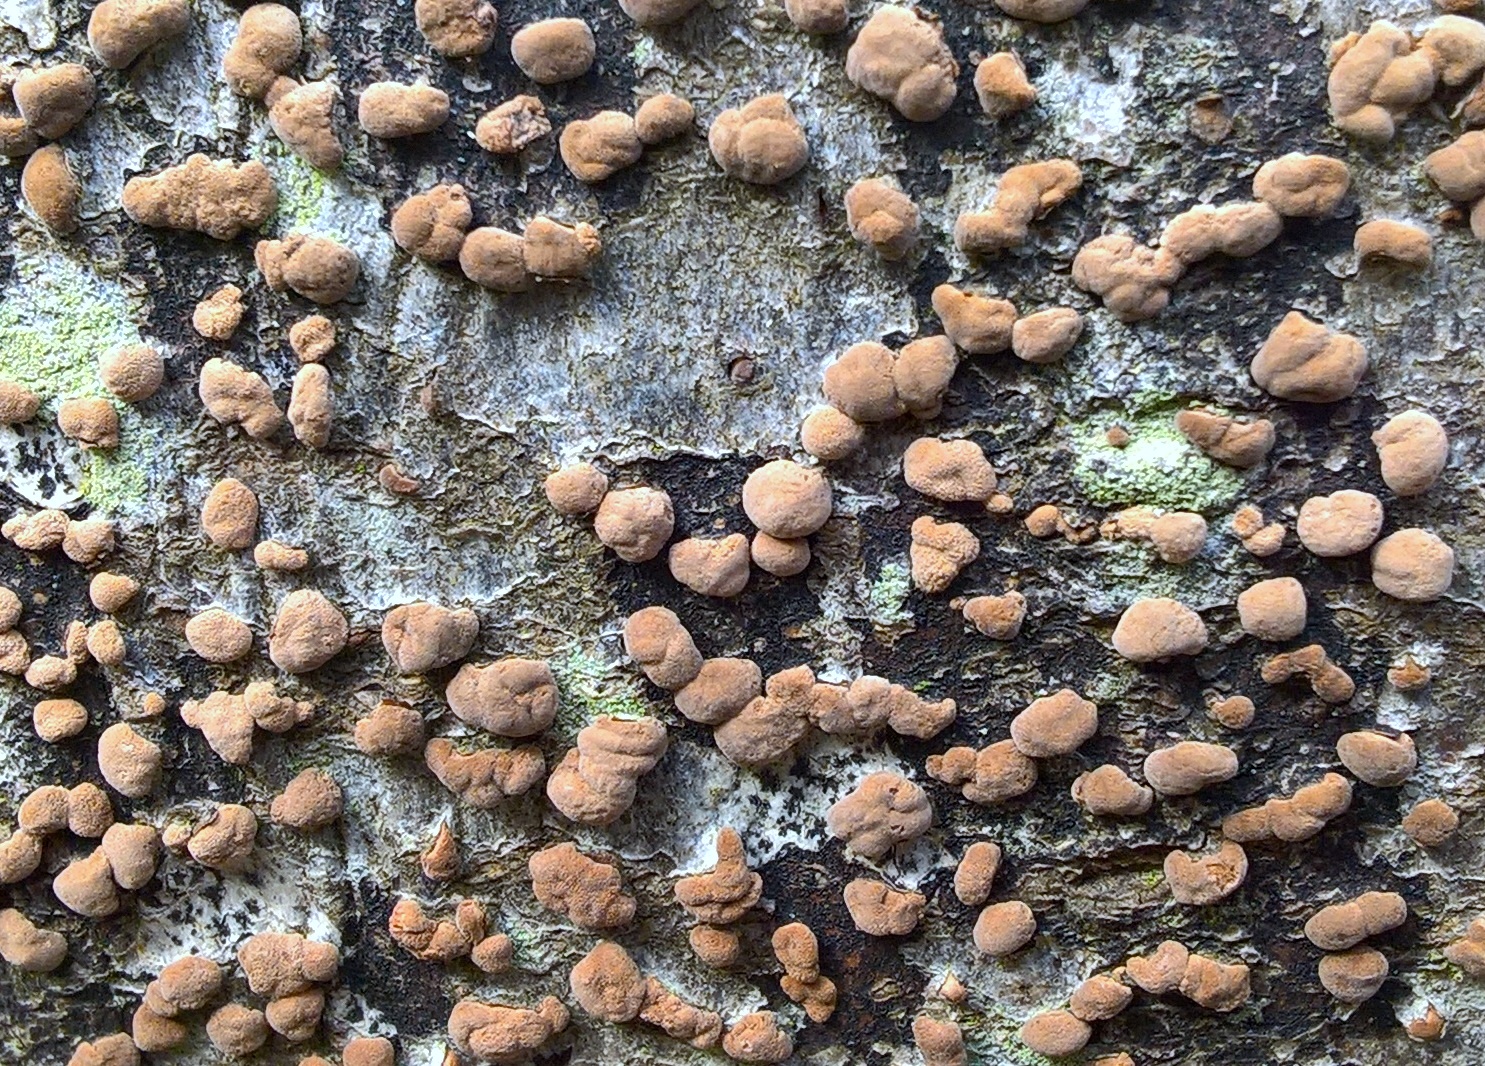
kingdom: Fungi
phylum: Ascomycota
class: Sordariomycetes
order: Xylariales
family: Hypoxylaceae
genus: Hypoxylon
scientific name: Hypoxylon fragiforme
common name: kuljordbær
